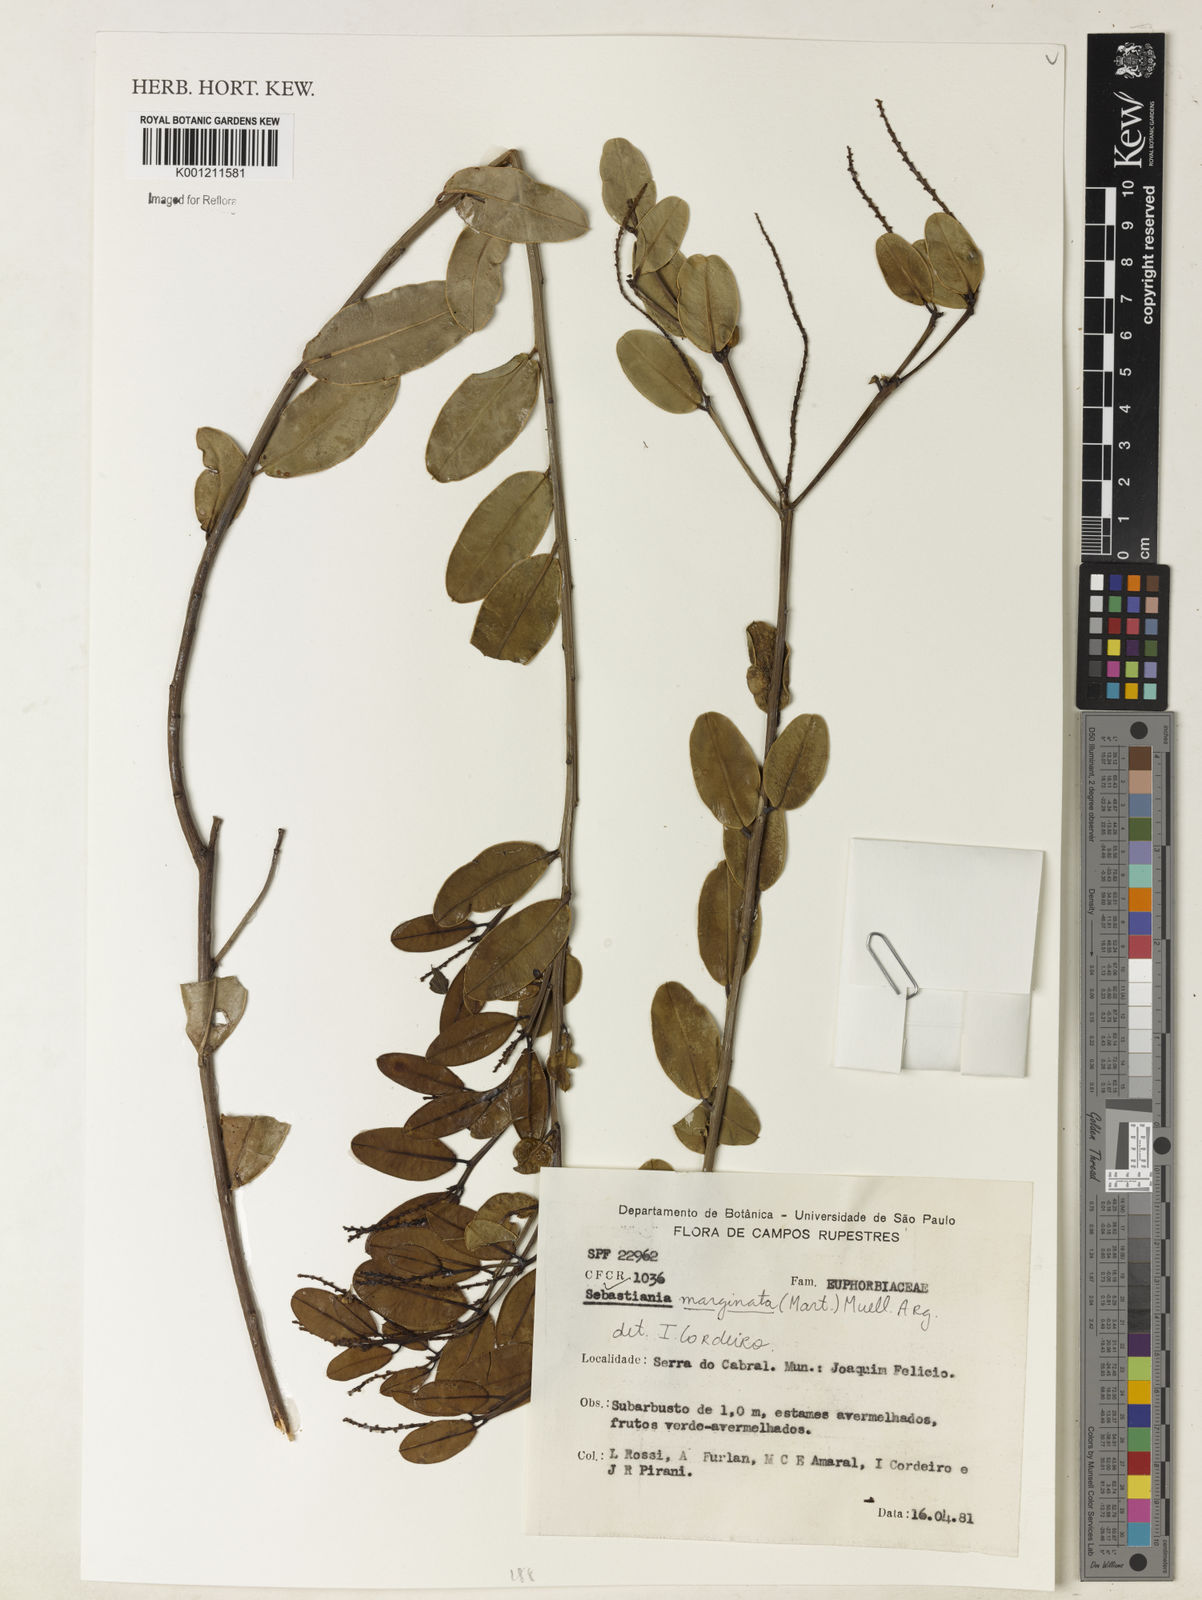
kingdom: Plantae
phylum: Tracheophyta
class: Magnoliopsida
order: Malpighiales
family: Euphorbiaceae
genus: Microstachys
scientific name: Microstachys
